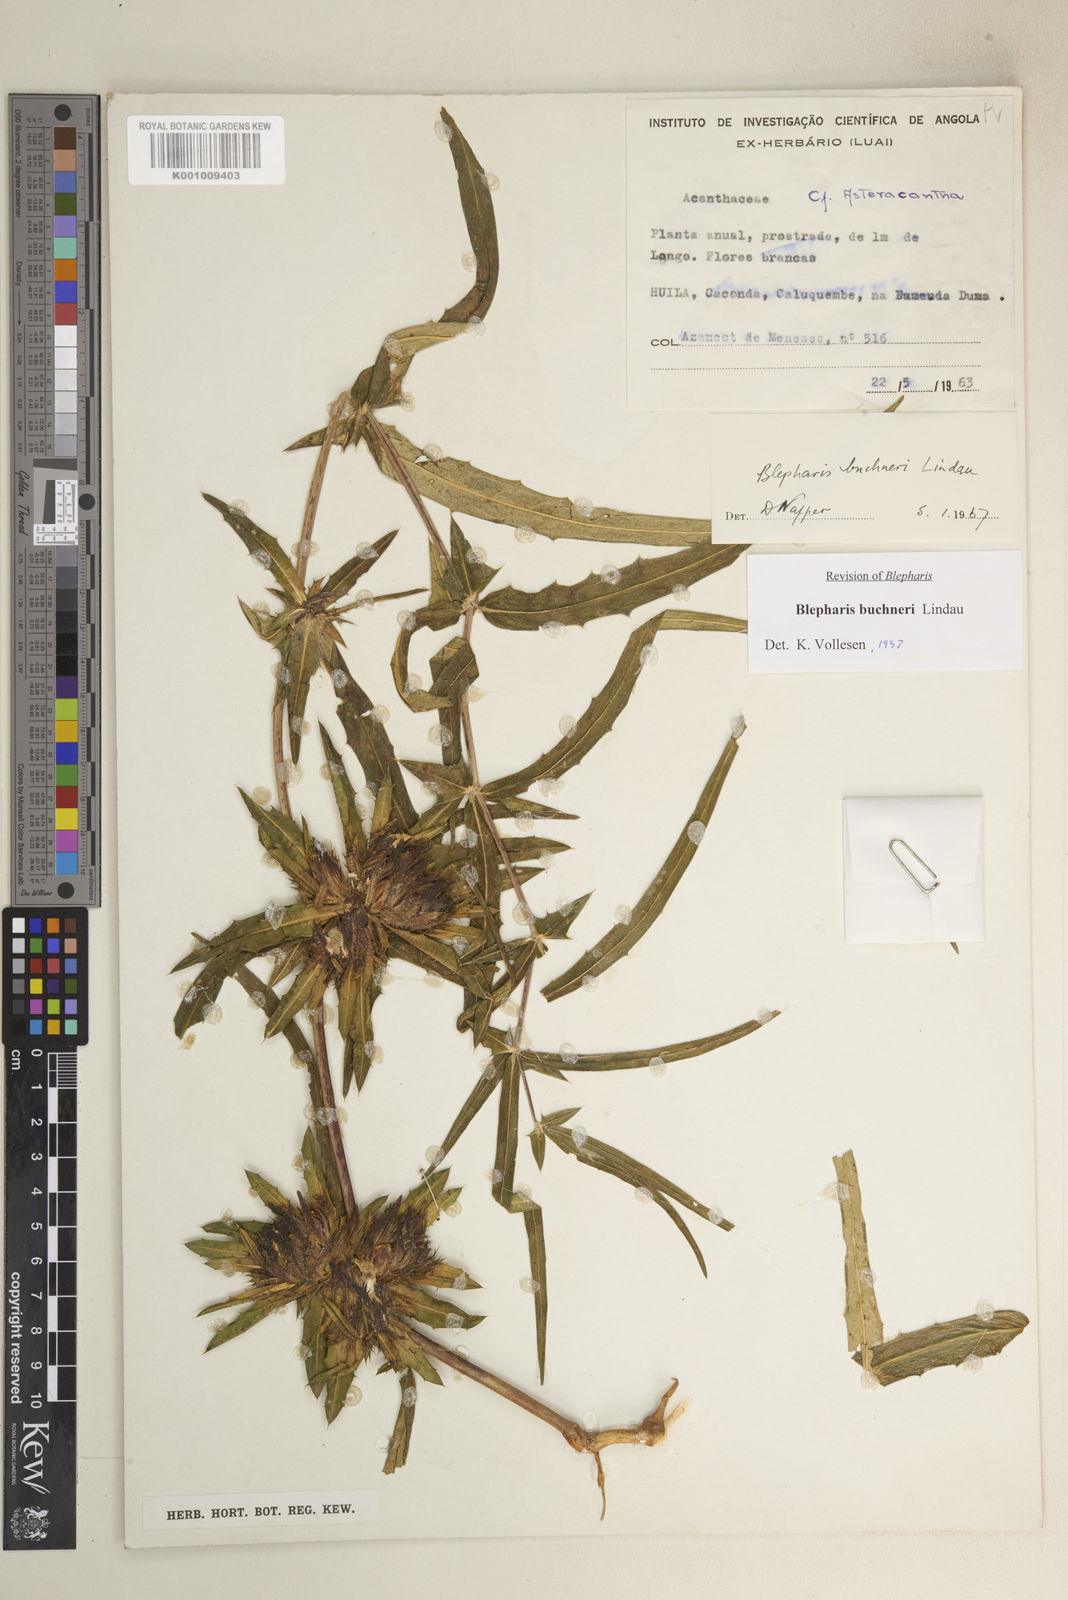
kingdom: Plantae
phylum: Tracheophyta
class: Magnoliopsida
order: Lamiales
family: Acanthaceae
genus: Blepharis
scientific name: Blepharis buchneri
